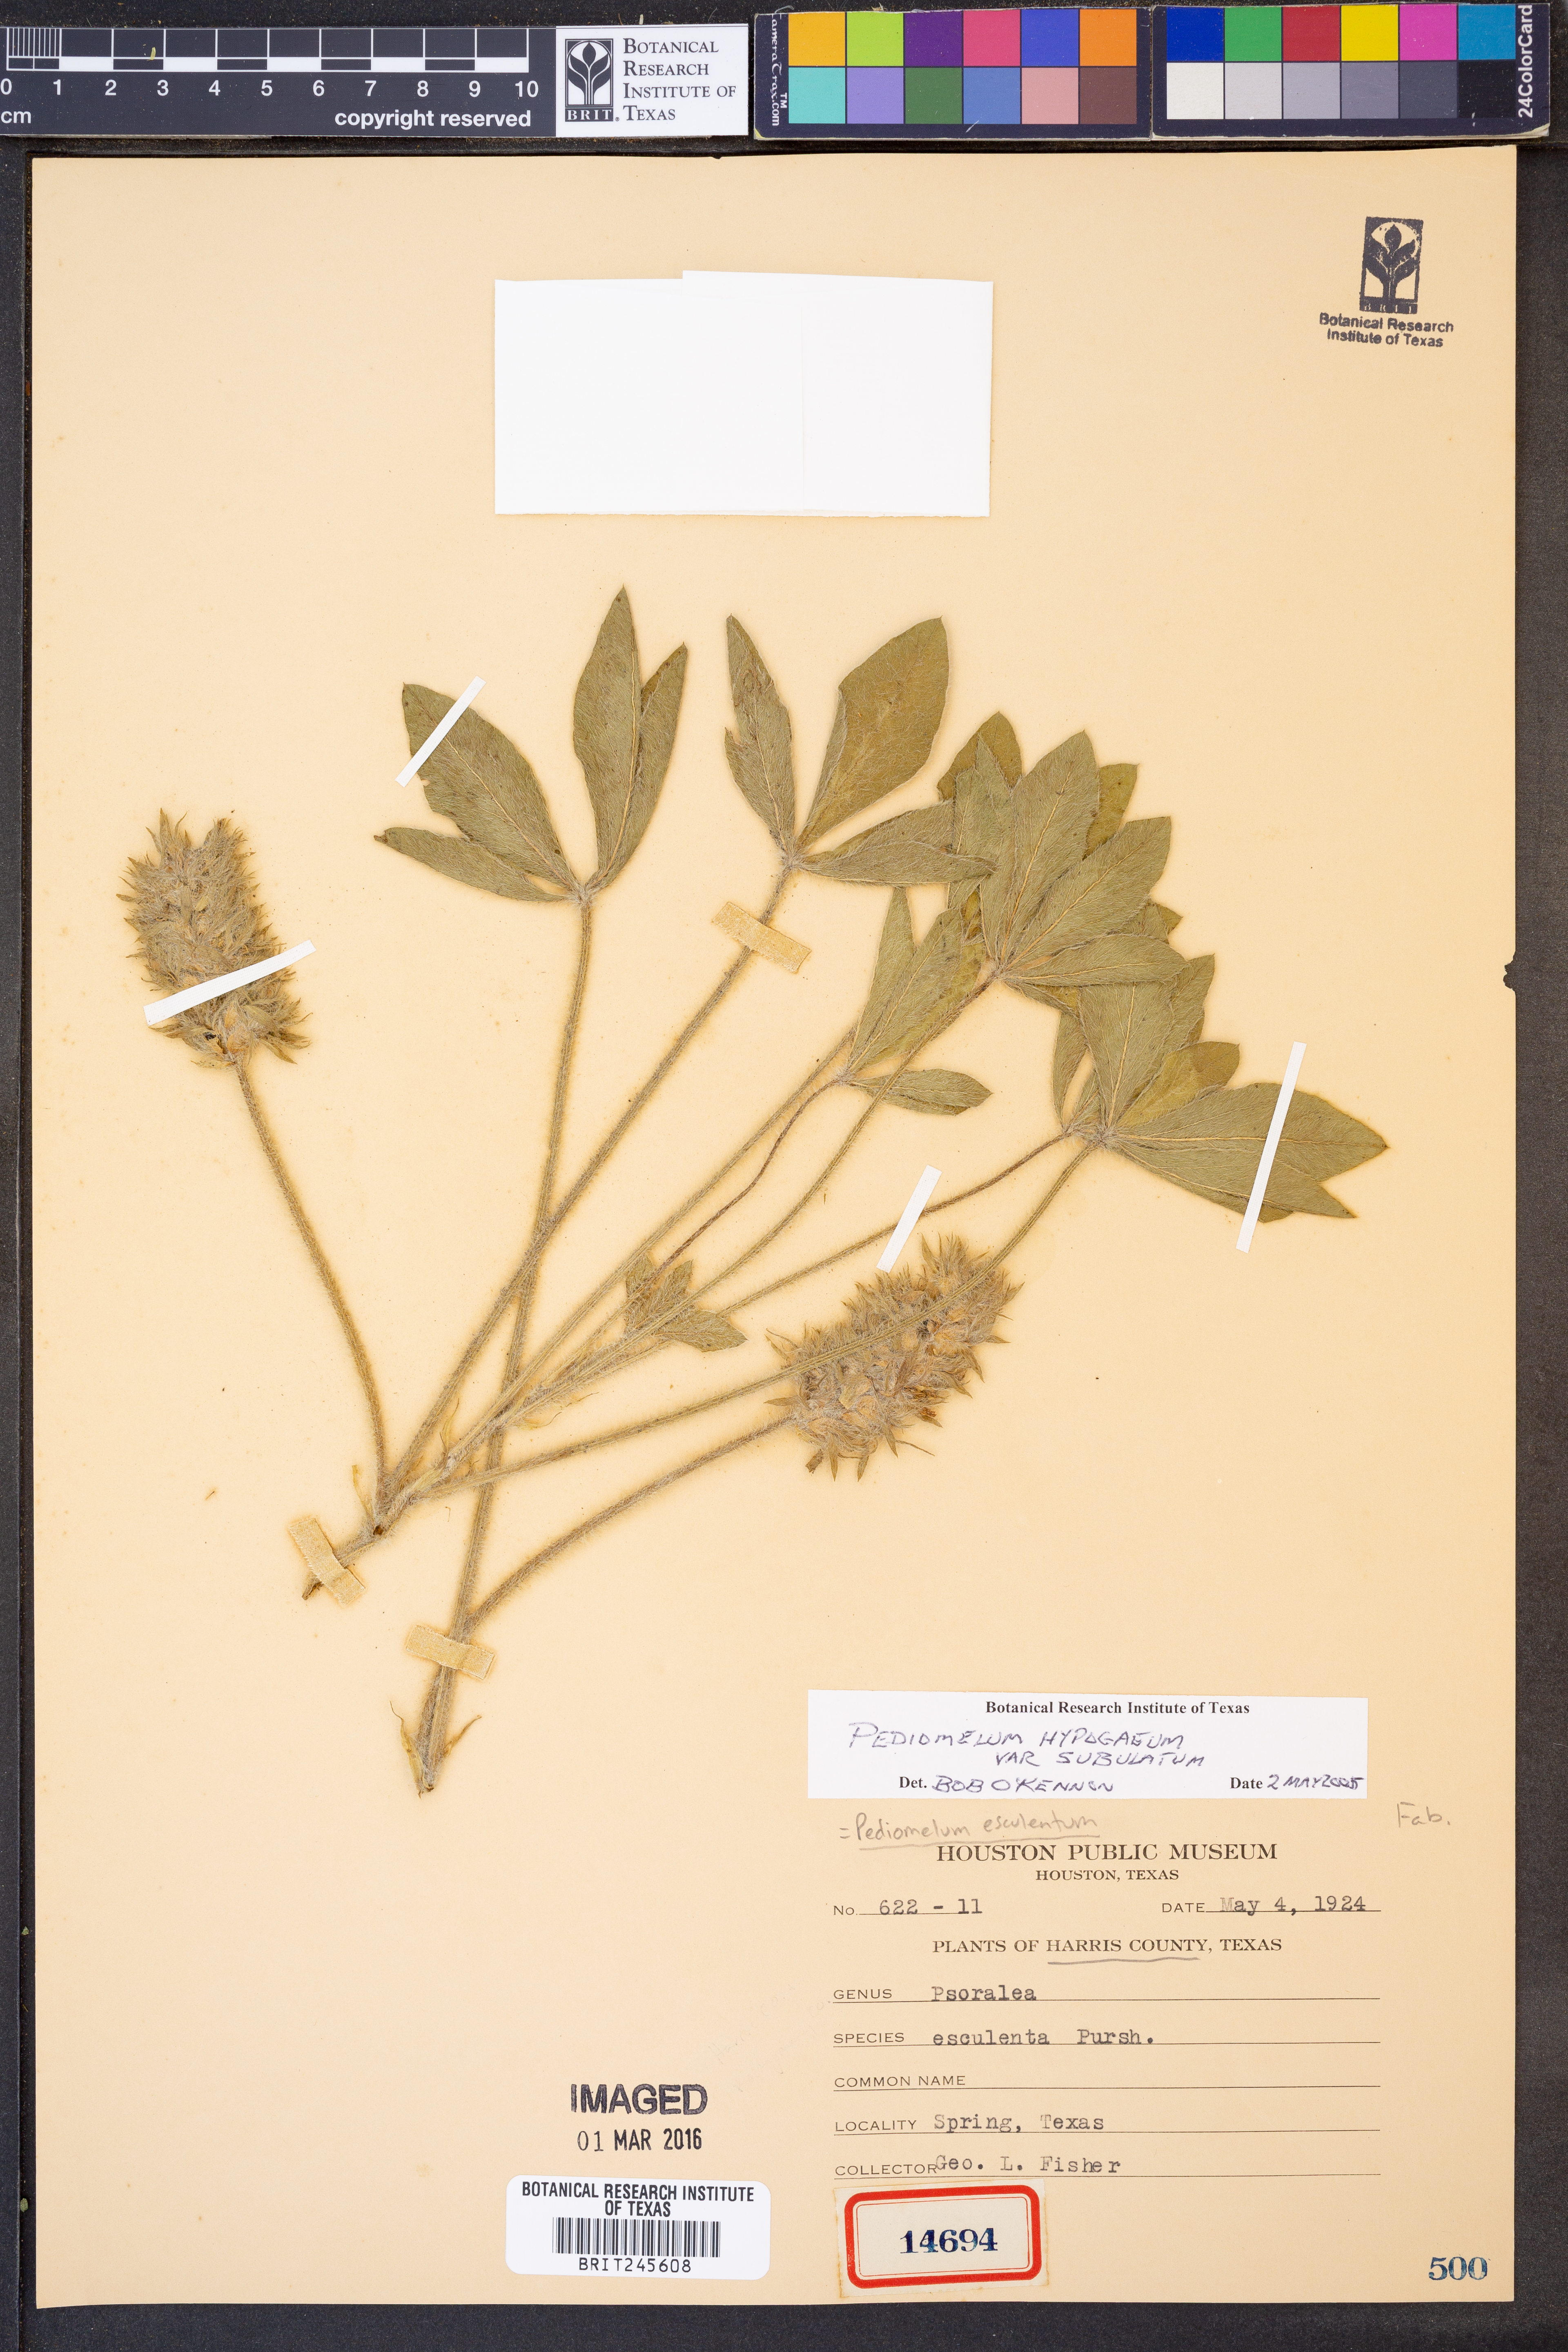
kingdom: Plantae
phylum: Tracheophyta
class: Magnoliopsida
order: Fabales
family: Fabaceae
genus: Pediomelum
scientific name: Pediomelum hypogaeum
